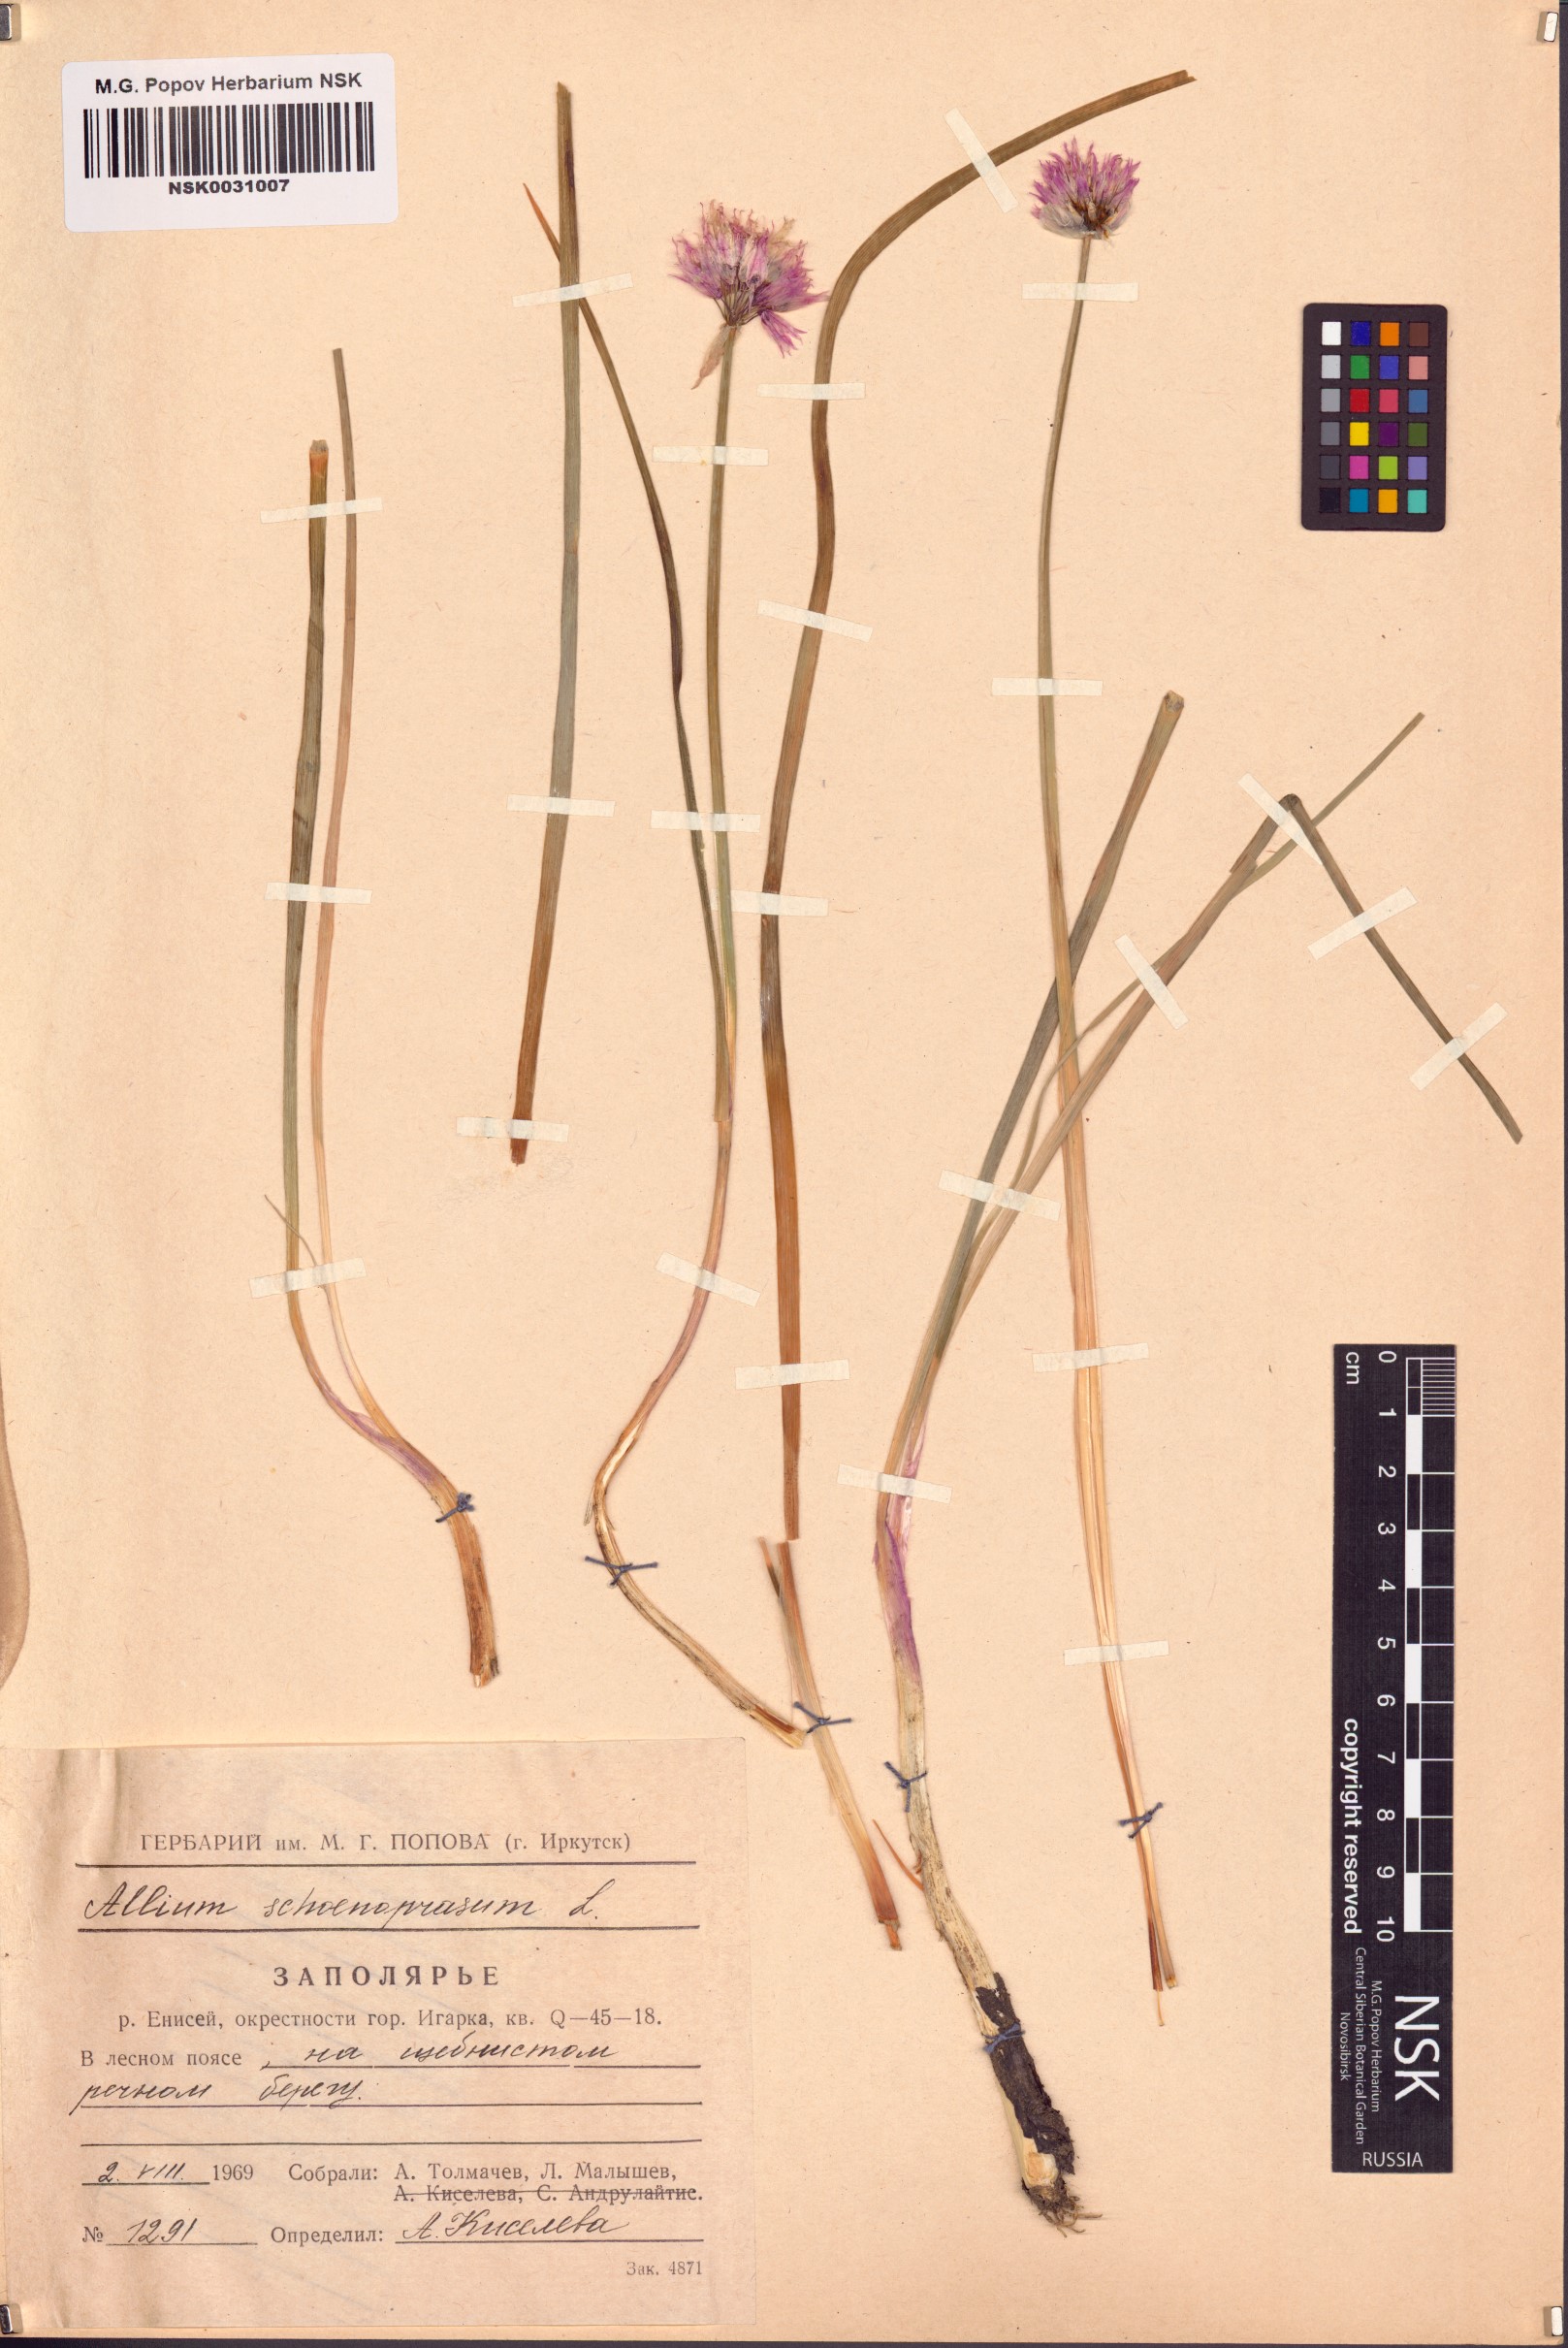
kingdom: Plantae
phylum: Tracheophyta
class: Liliopsida
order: Asparagales
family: Amaryllidaceae
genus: Allium
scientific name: Allium schoenoprasum
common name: Chives
